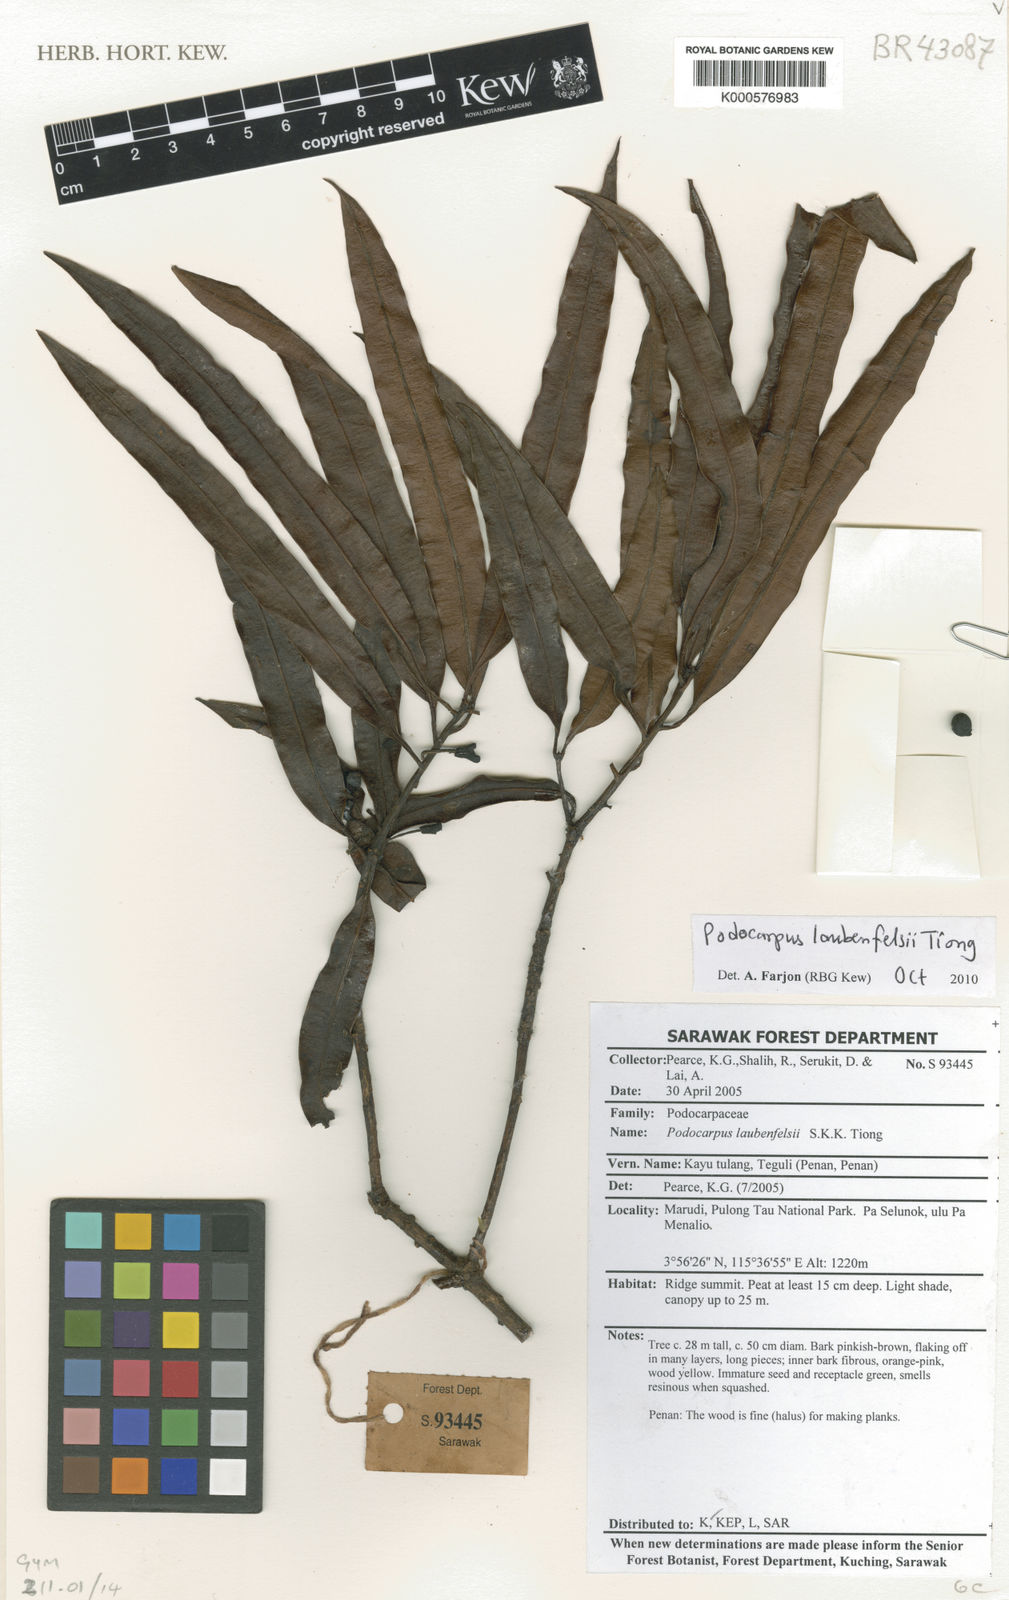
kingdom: Plantae
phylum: Tracheophyta
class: Pinopsida
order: Pinales
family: Podocarpaceae
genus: Podocarpus
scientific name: Podocarpus laubenfelsii
